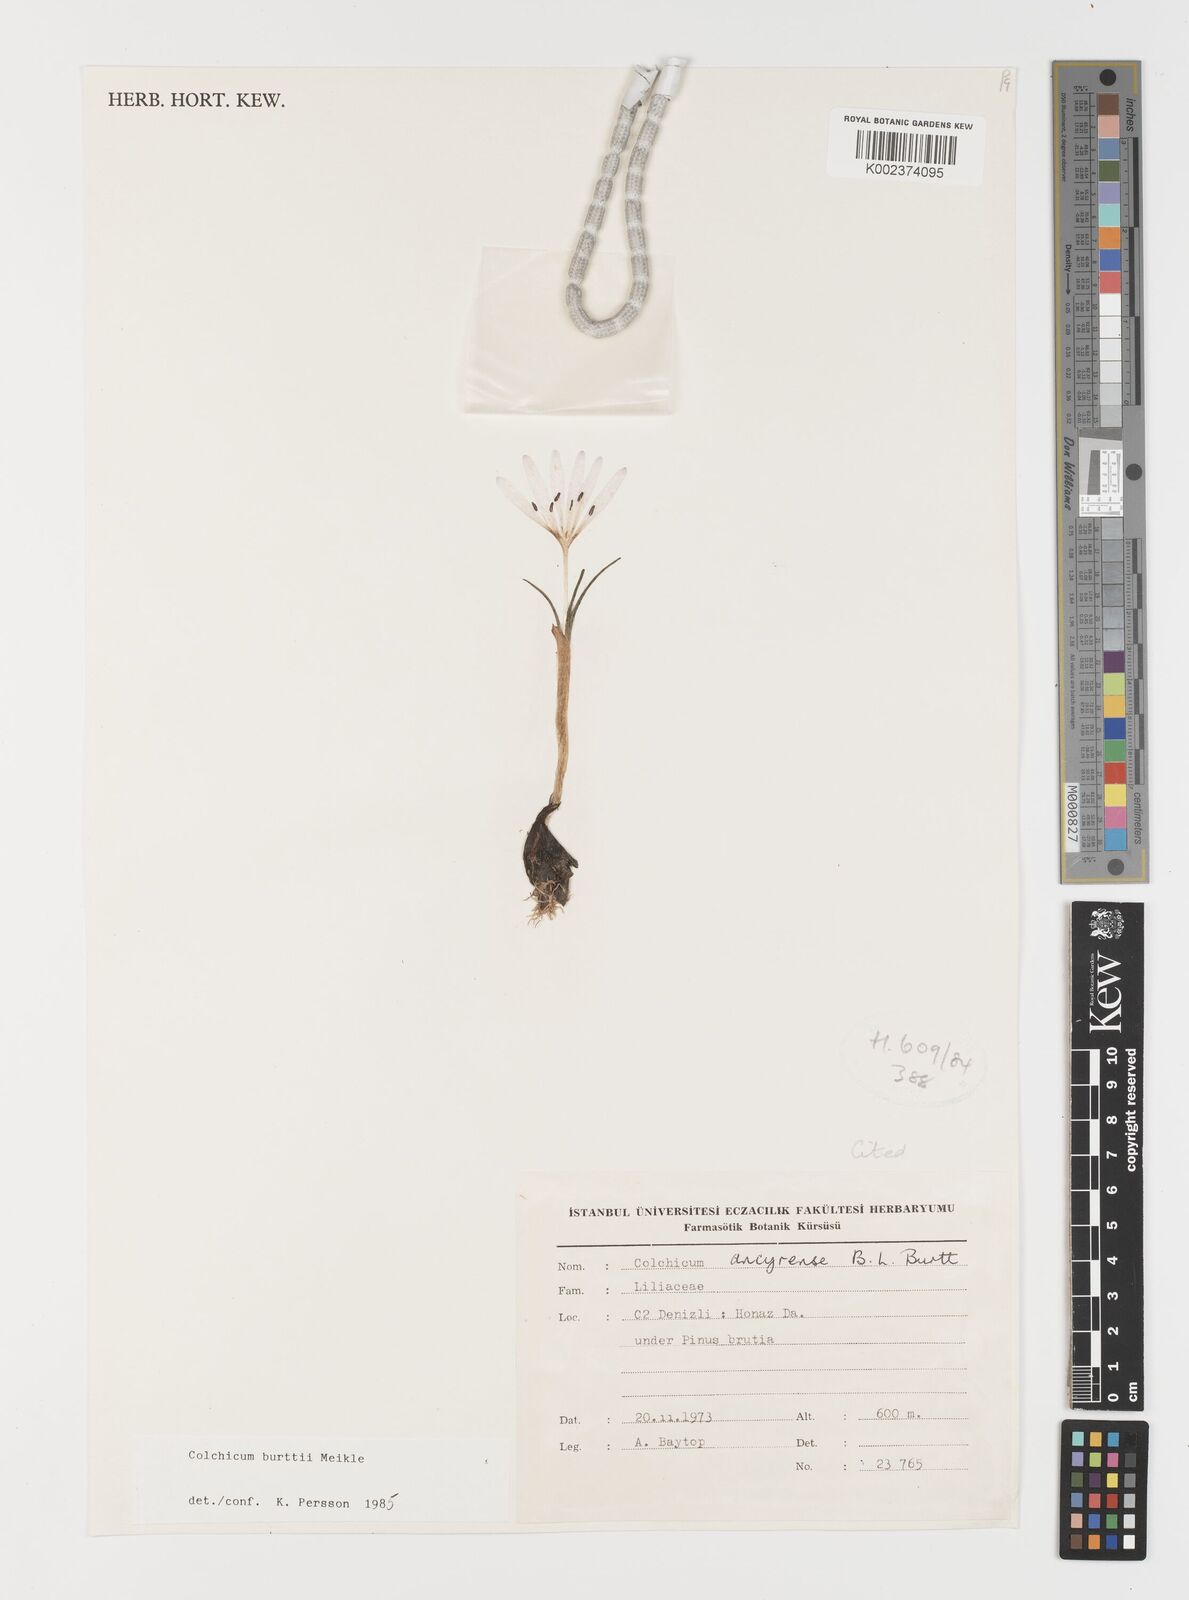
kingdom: Plantae
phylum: Tracheophyta
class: Liliopsida
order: Liliales
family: Colchicaceae
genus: Colchicum
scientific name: Colchicum burttii
